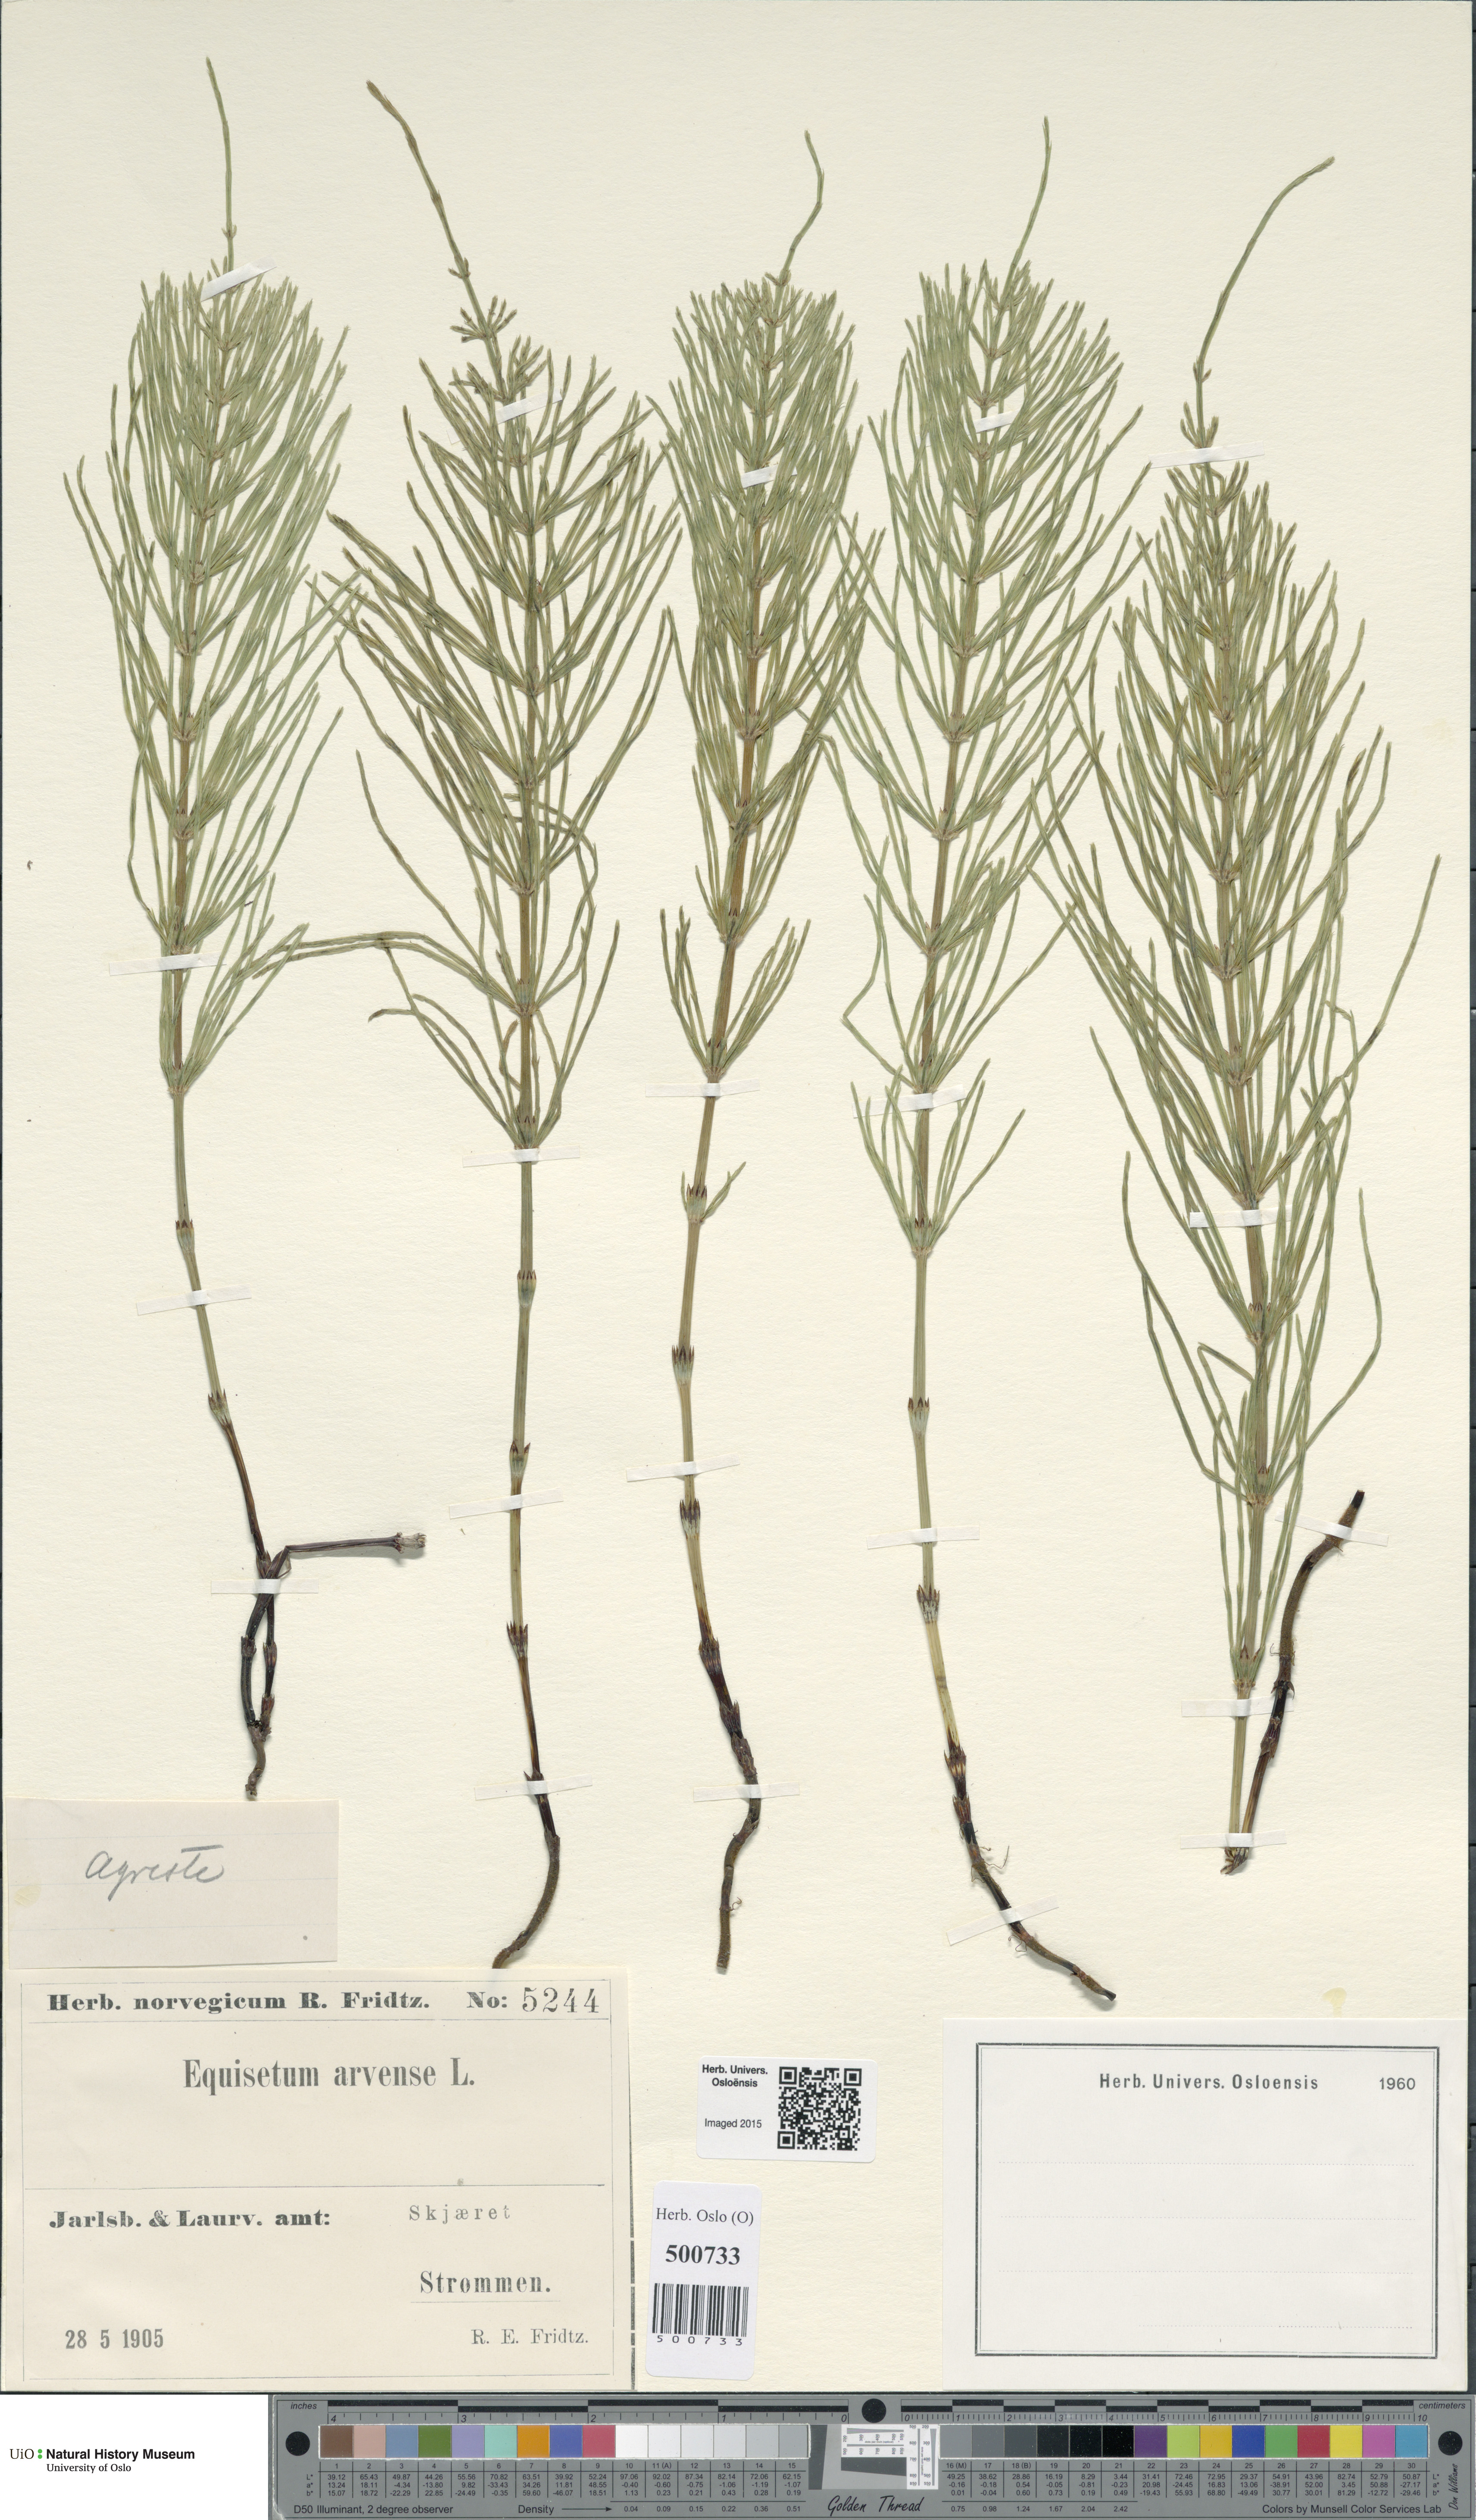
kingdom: Plantae
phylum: Tracheophyta
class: Polypodiopsida
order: Equisetales
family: Equisetaceae
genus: Equisetum
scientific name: Equisetum arvense
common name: Field horsetail
